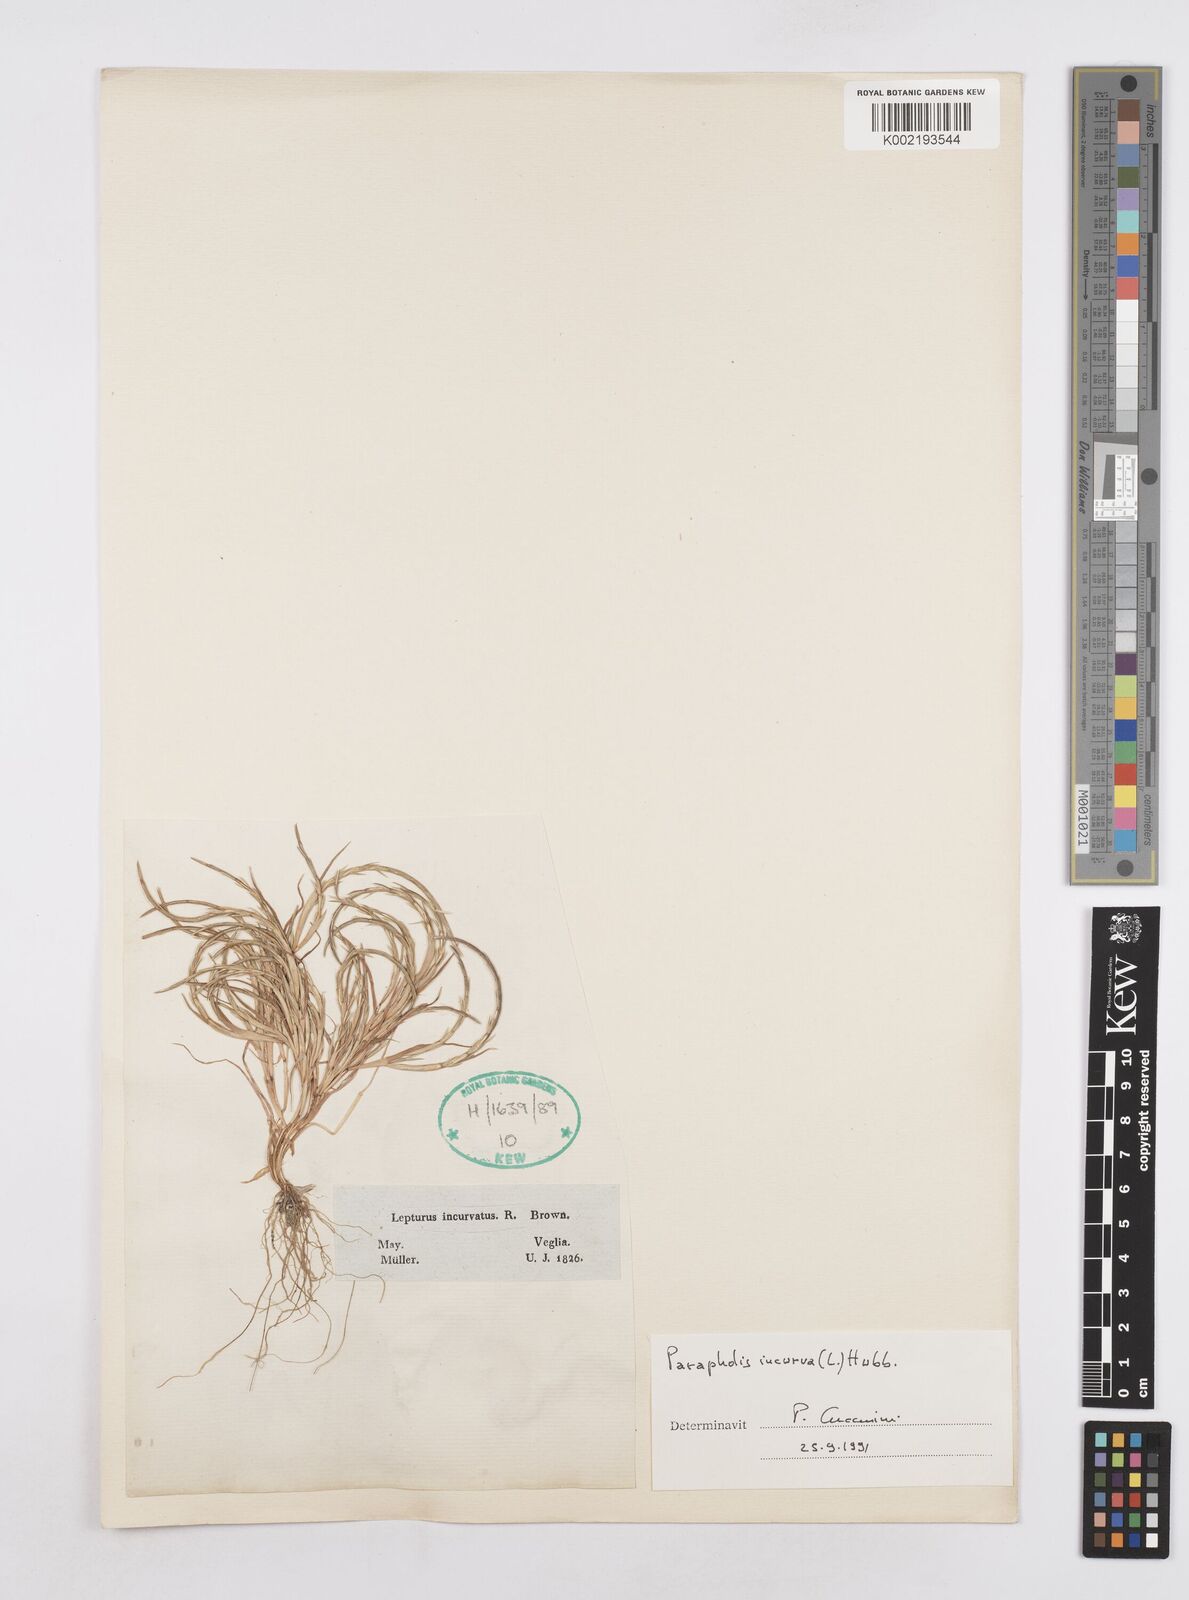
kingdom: Plantae
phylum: Tracheophyta
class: Liliopsida
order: Poales
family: Poaceae
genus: Parapholis
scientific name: Parapholis incurva
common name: Curved sicklegrass
